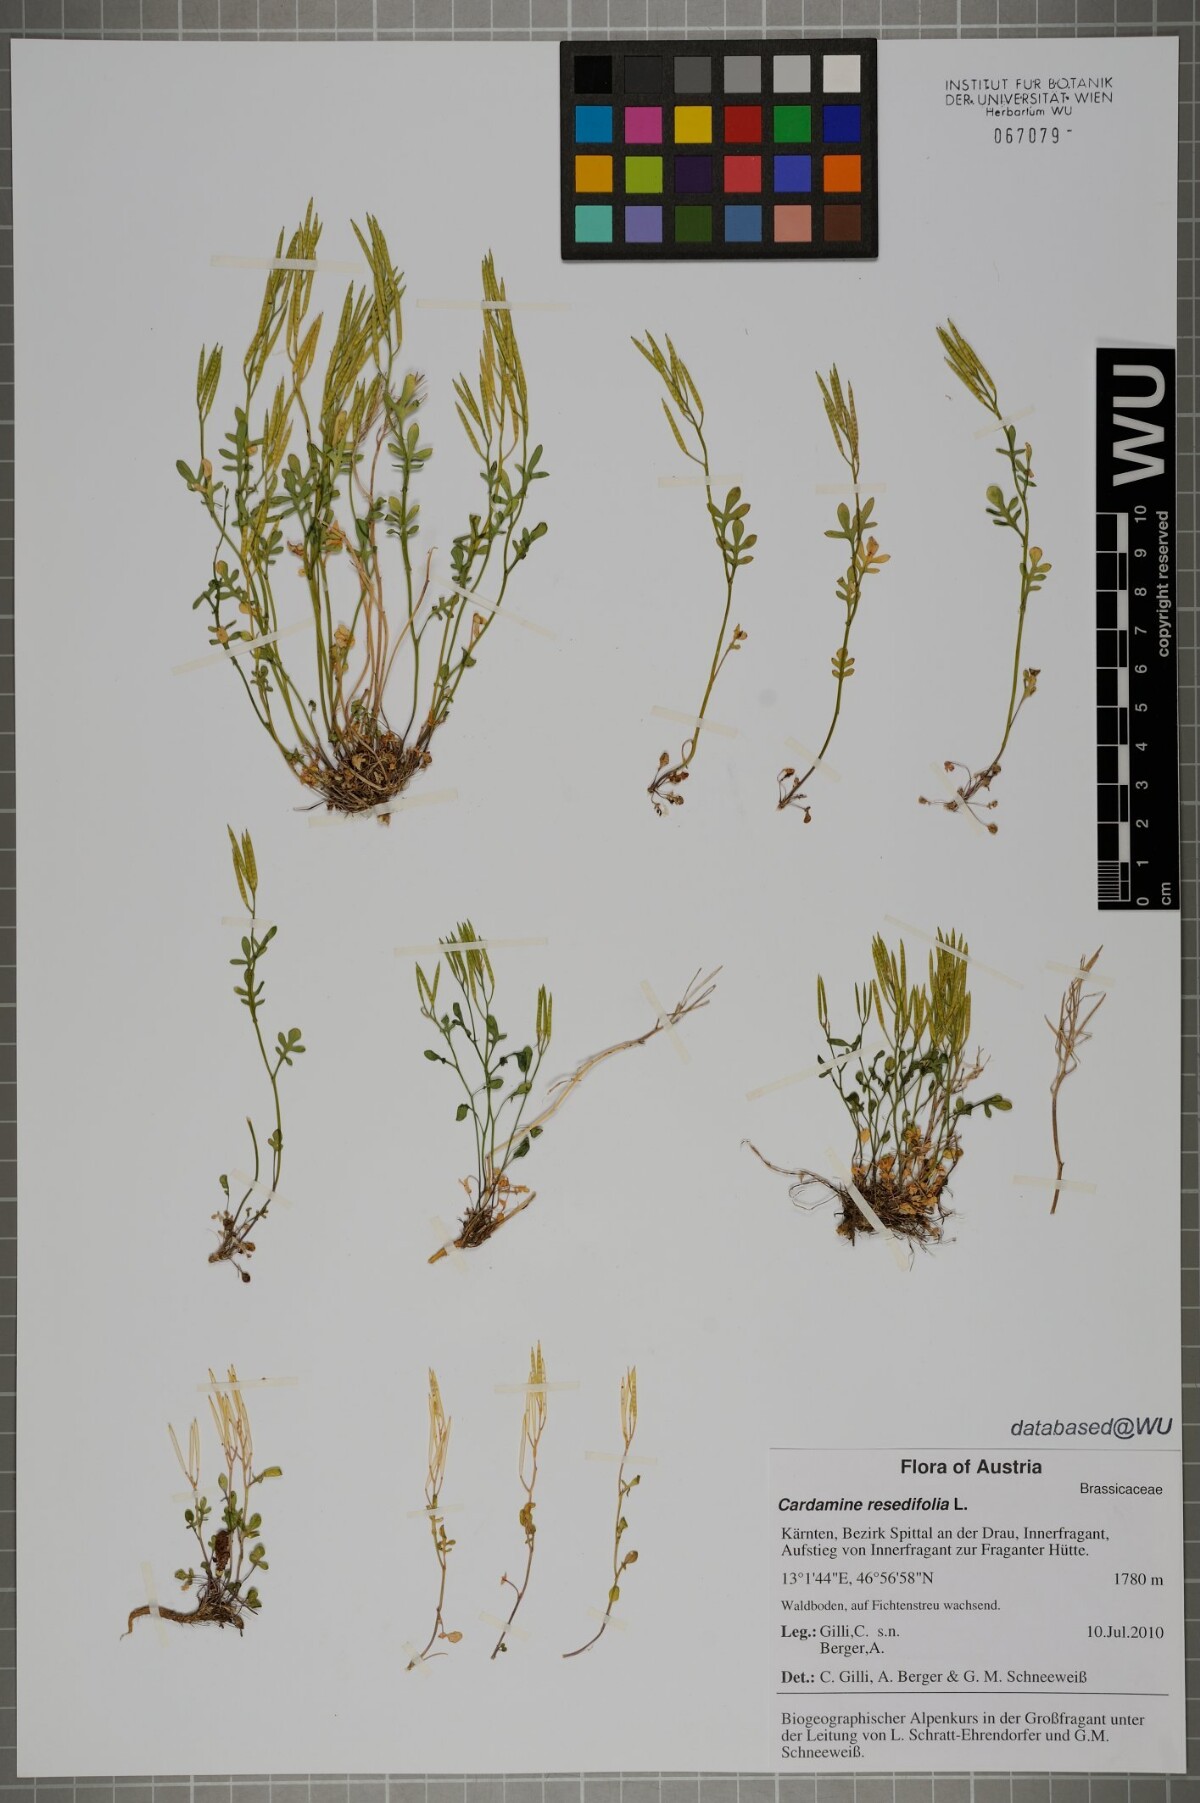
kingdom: Plantae
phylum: Tracheophyta
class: Magnoliopsida
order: Brassicales
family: Brassicaceae
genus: Cardamine
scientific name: Cardamine resedifolia
